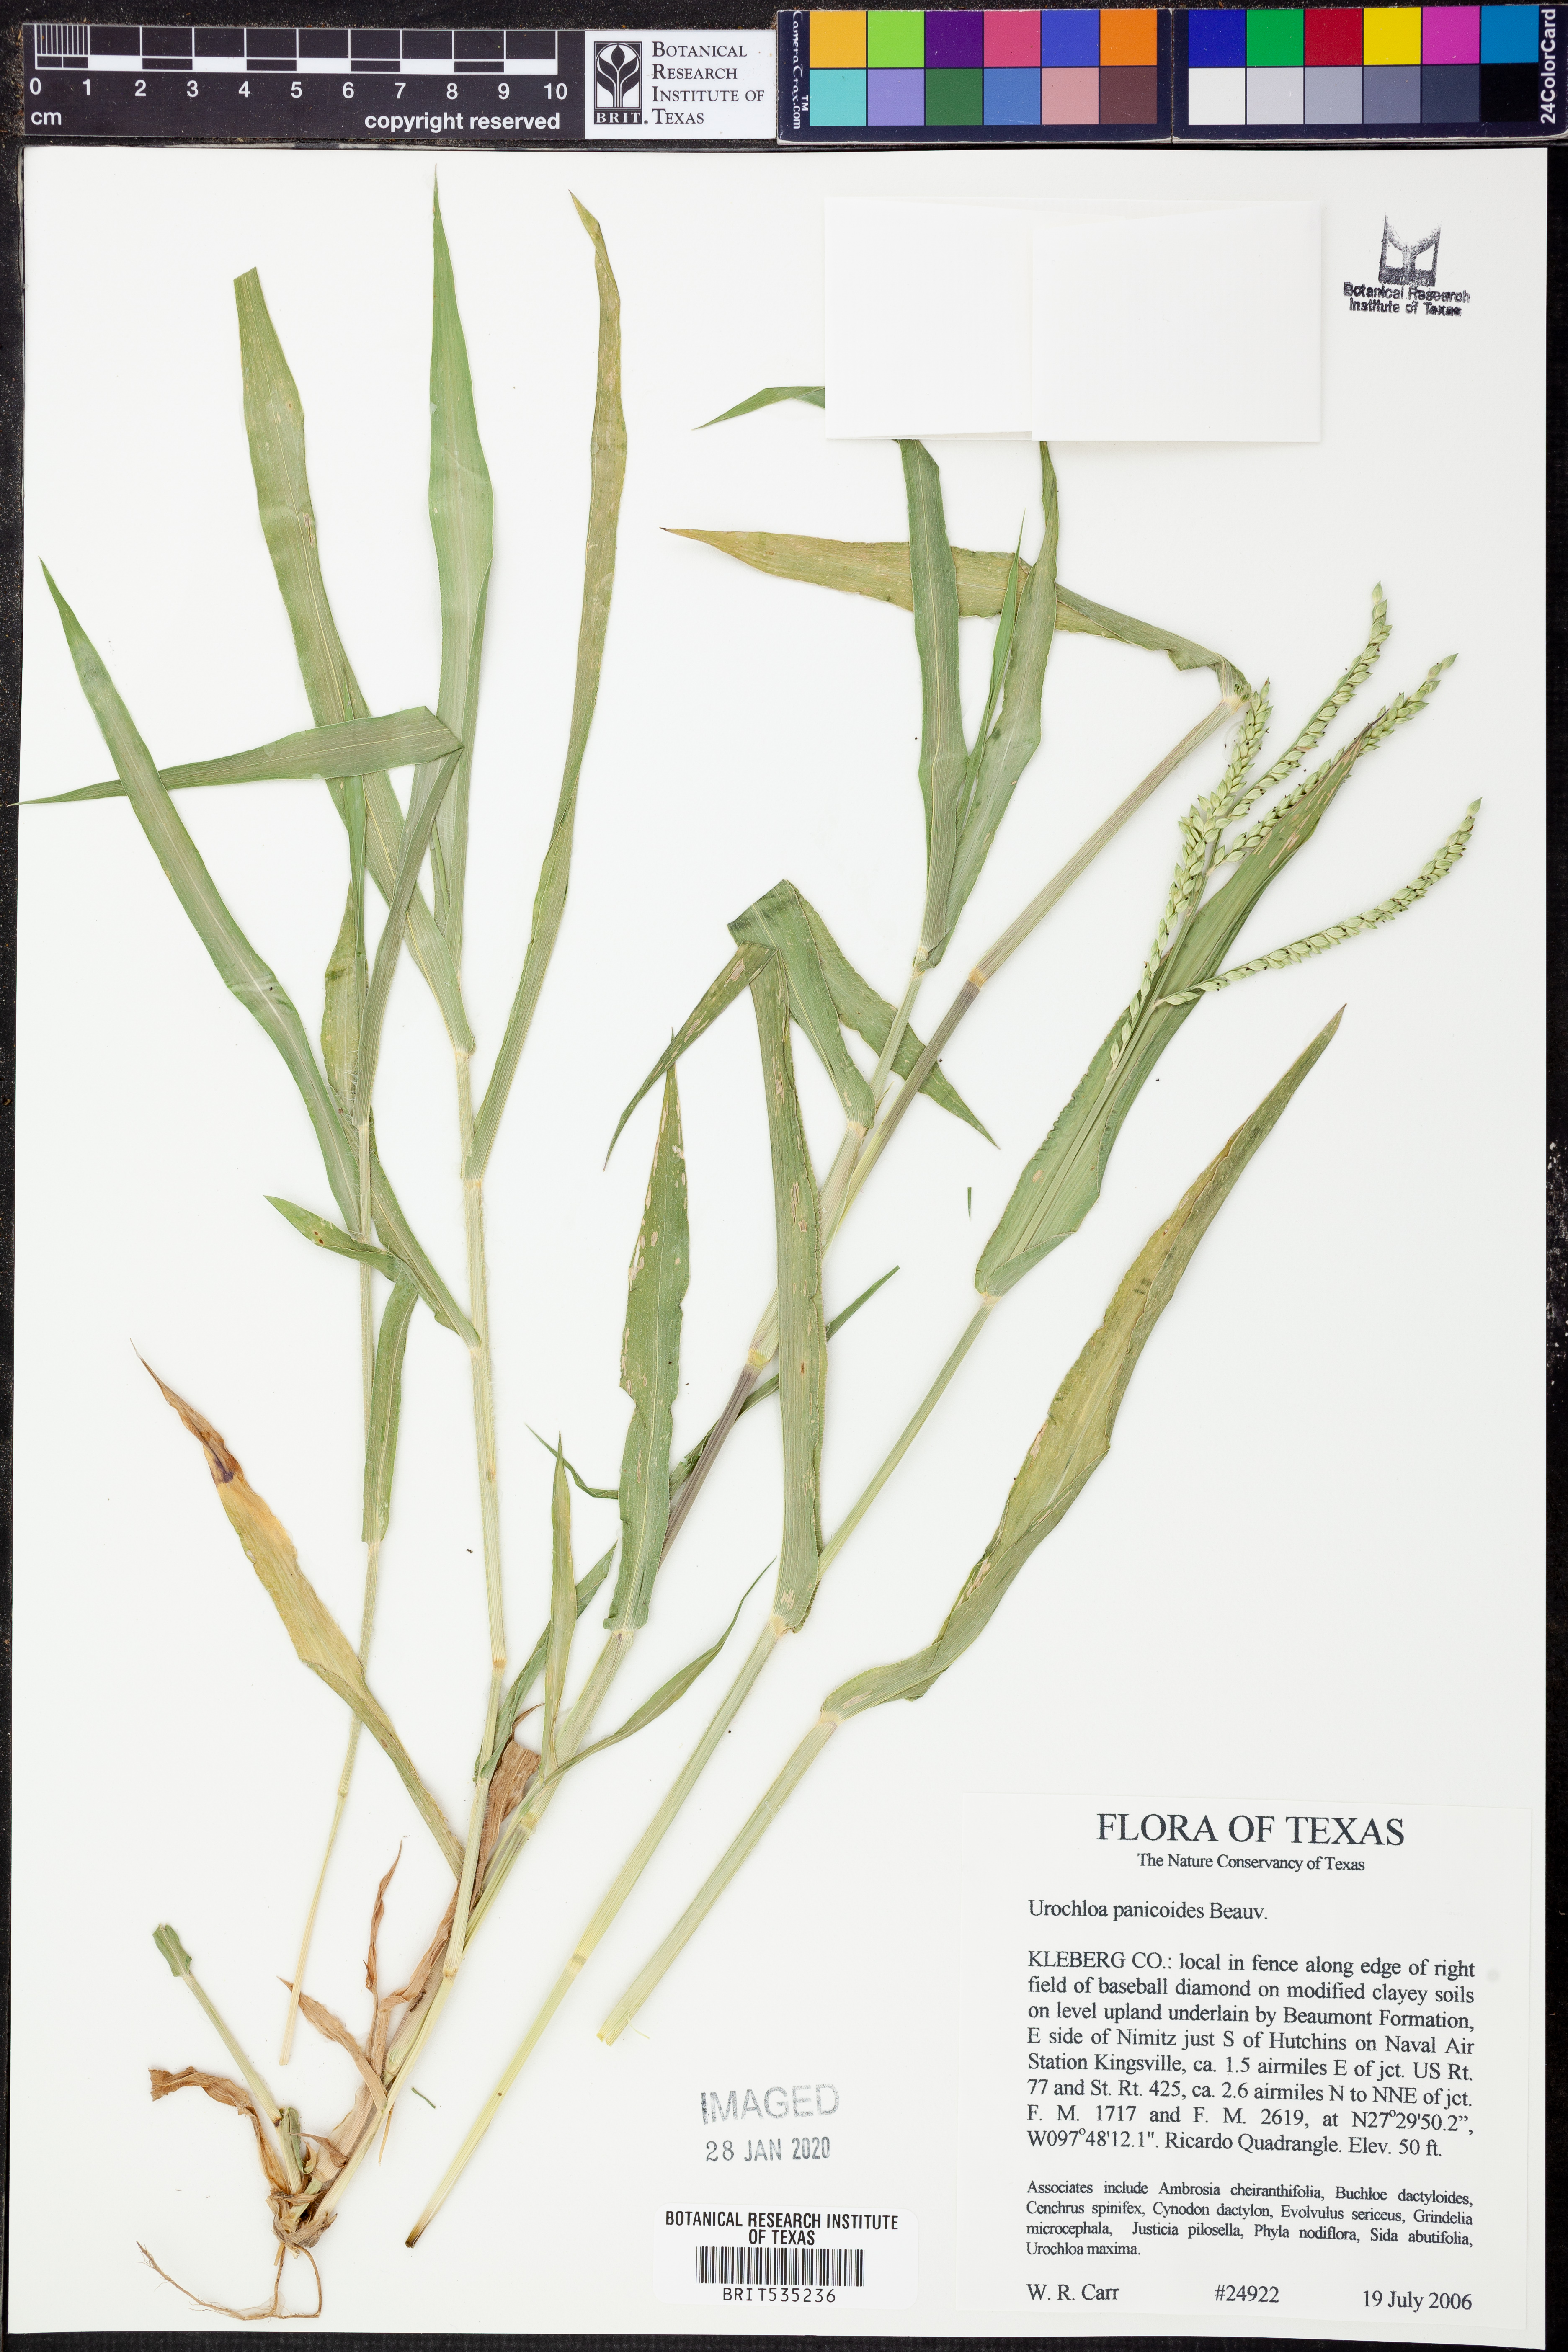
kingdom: Plantae
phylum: Tracheophyta
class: Liliopsida
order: Poales
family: Poaceae
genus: Urochloa
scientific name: Urochloa panicoides
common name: Sharp-flowered signal-grass
